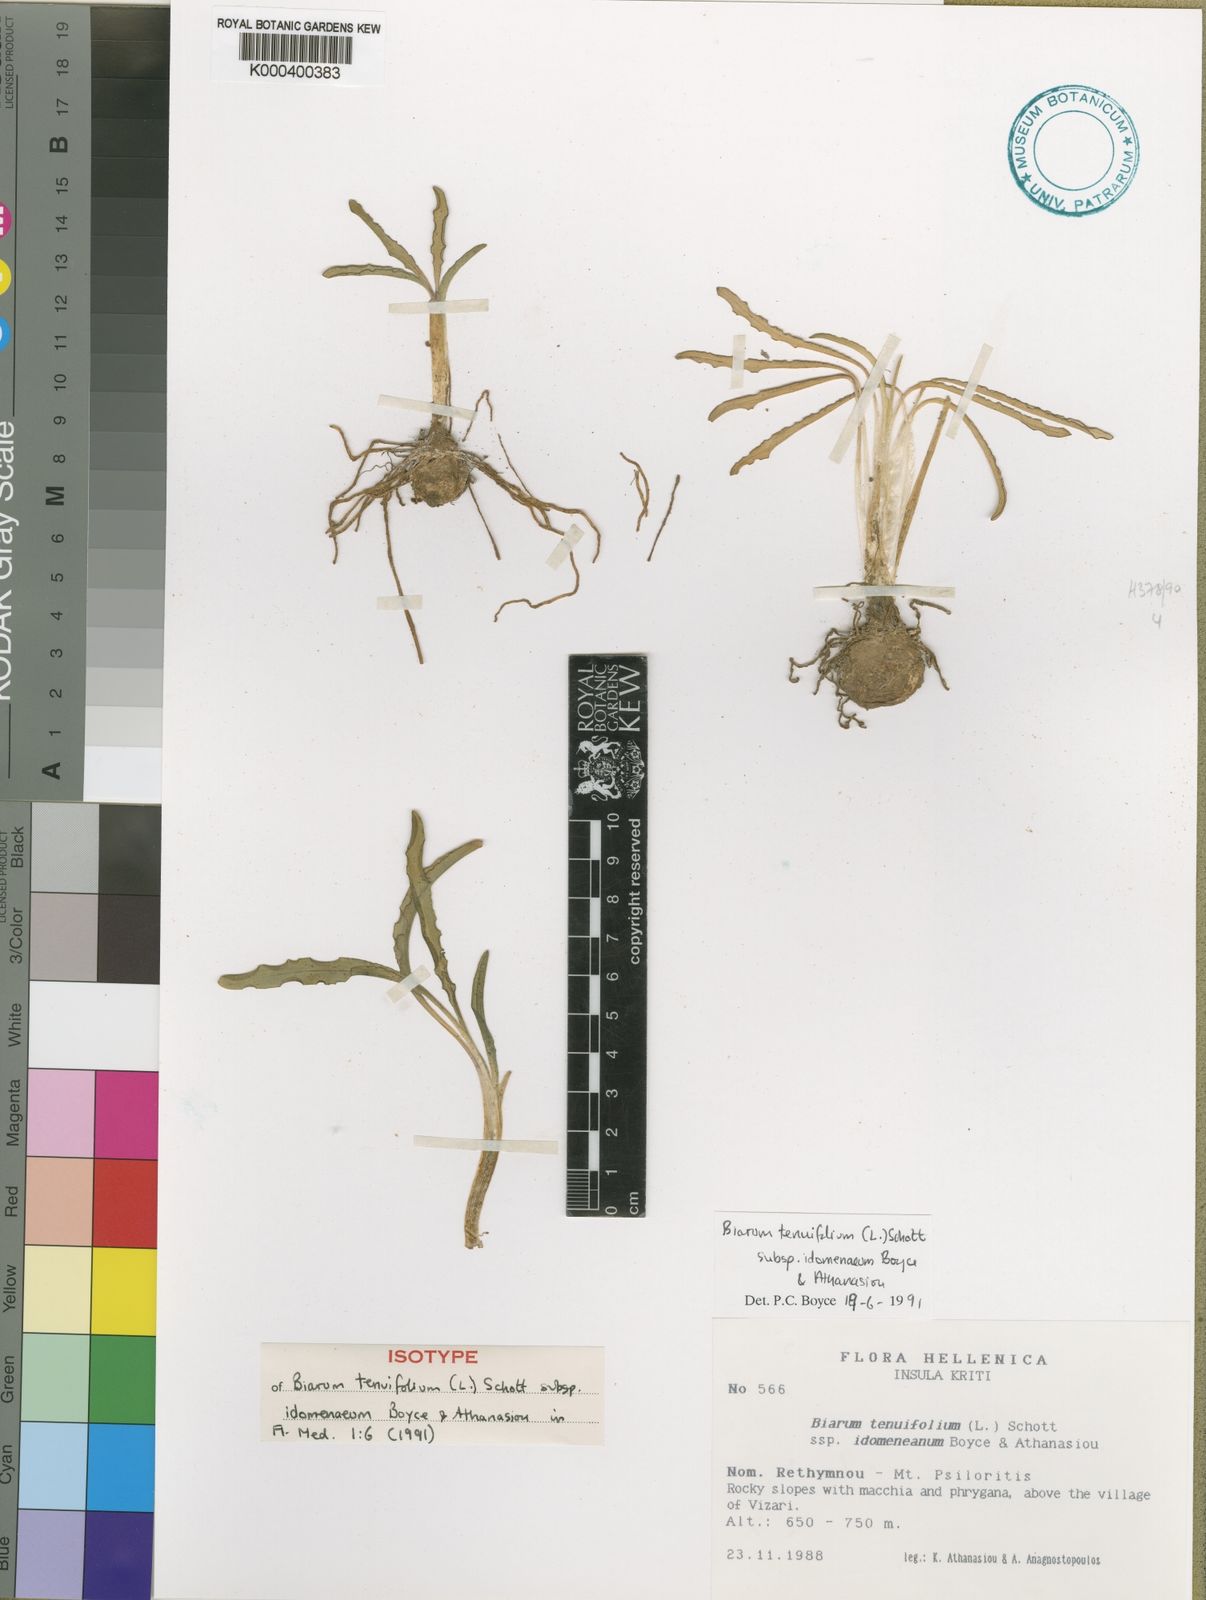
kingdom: Plantae
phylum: Tracheophyta
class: Liliopsida
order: Alismatales
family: Araceae
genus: Biarum
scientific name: Biarum tenuifolium
